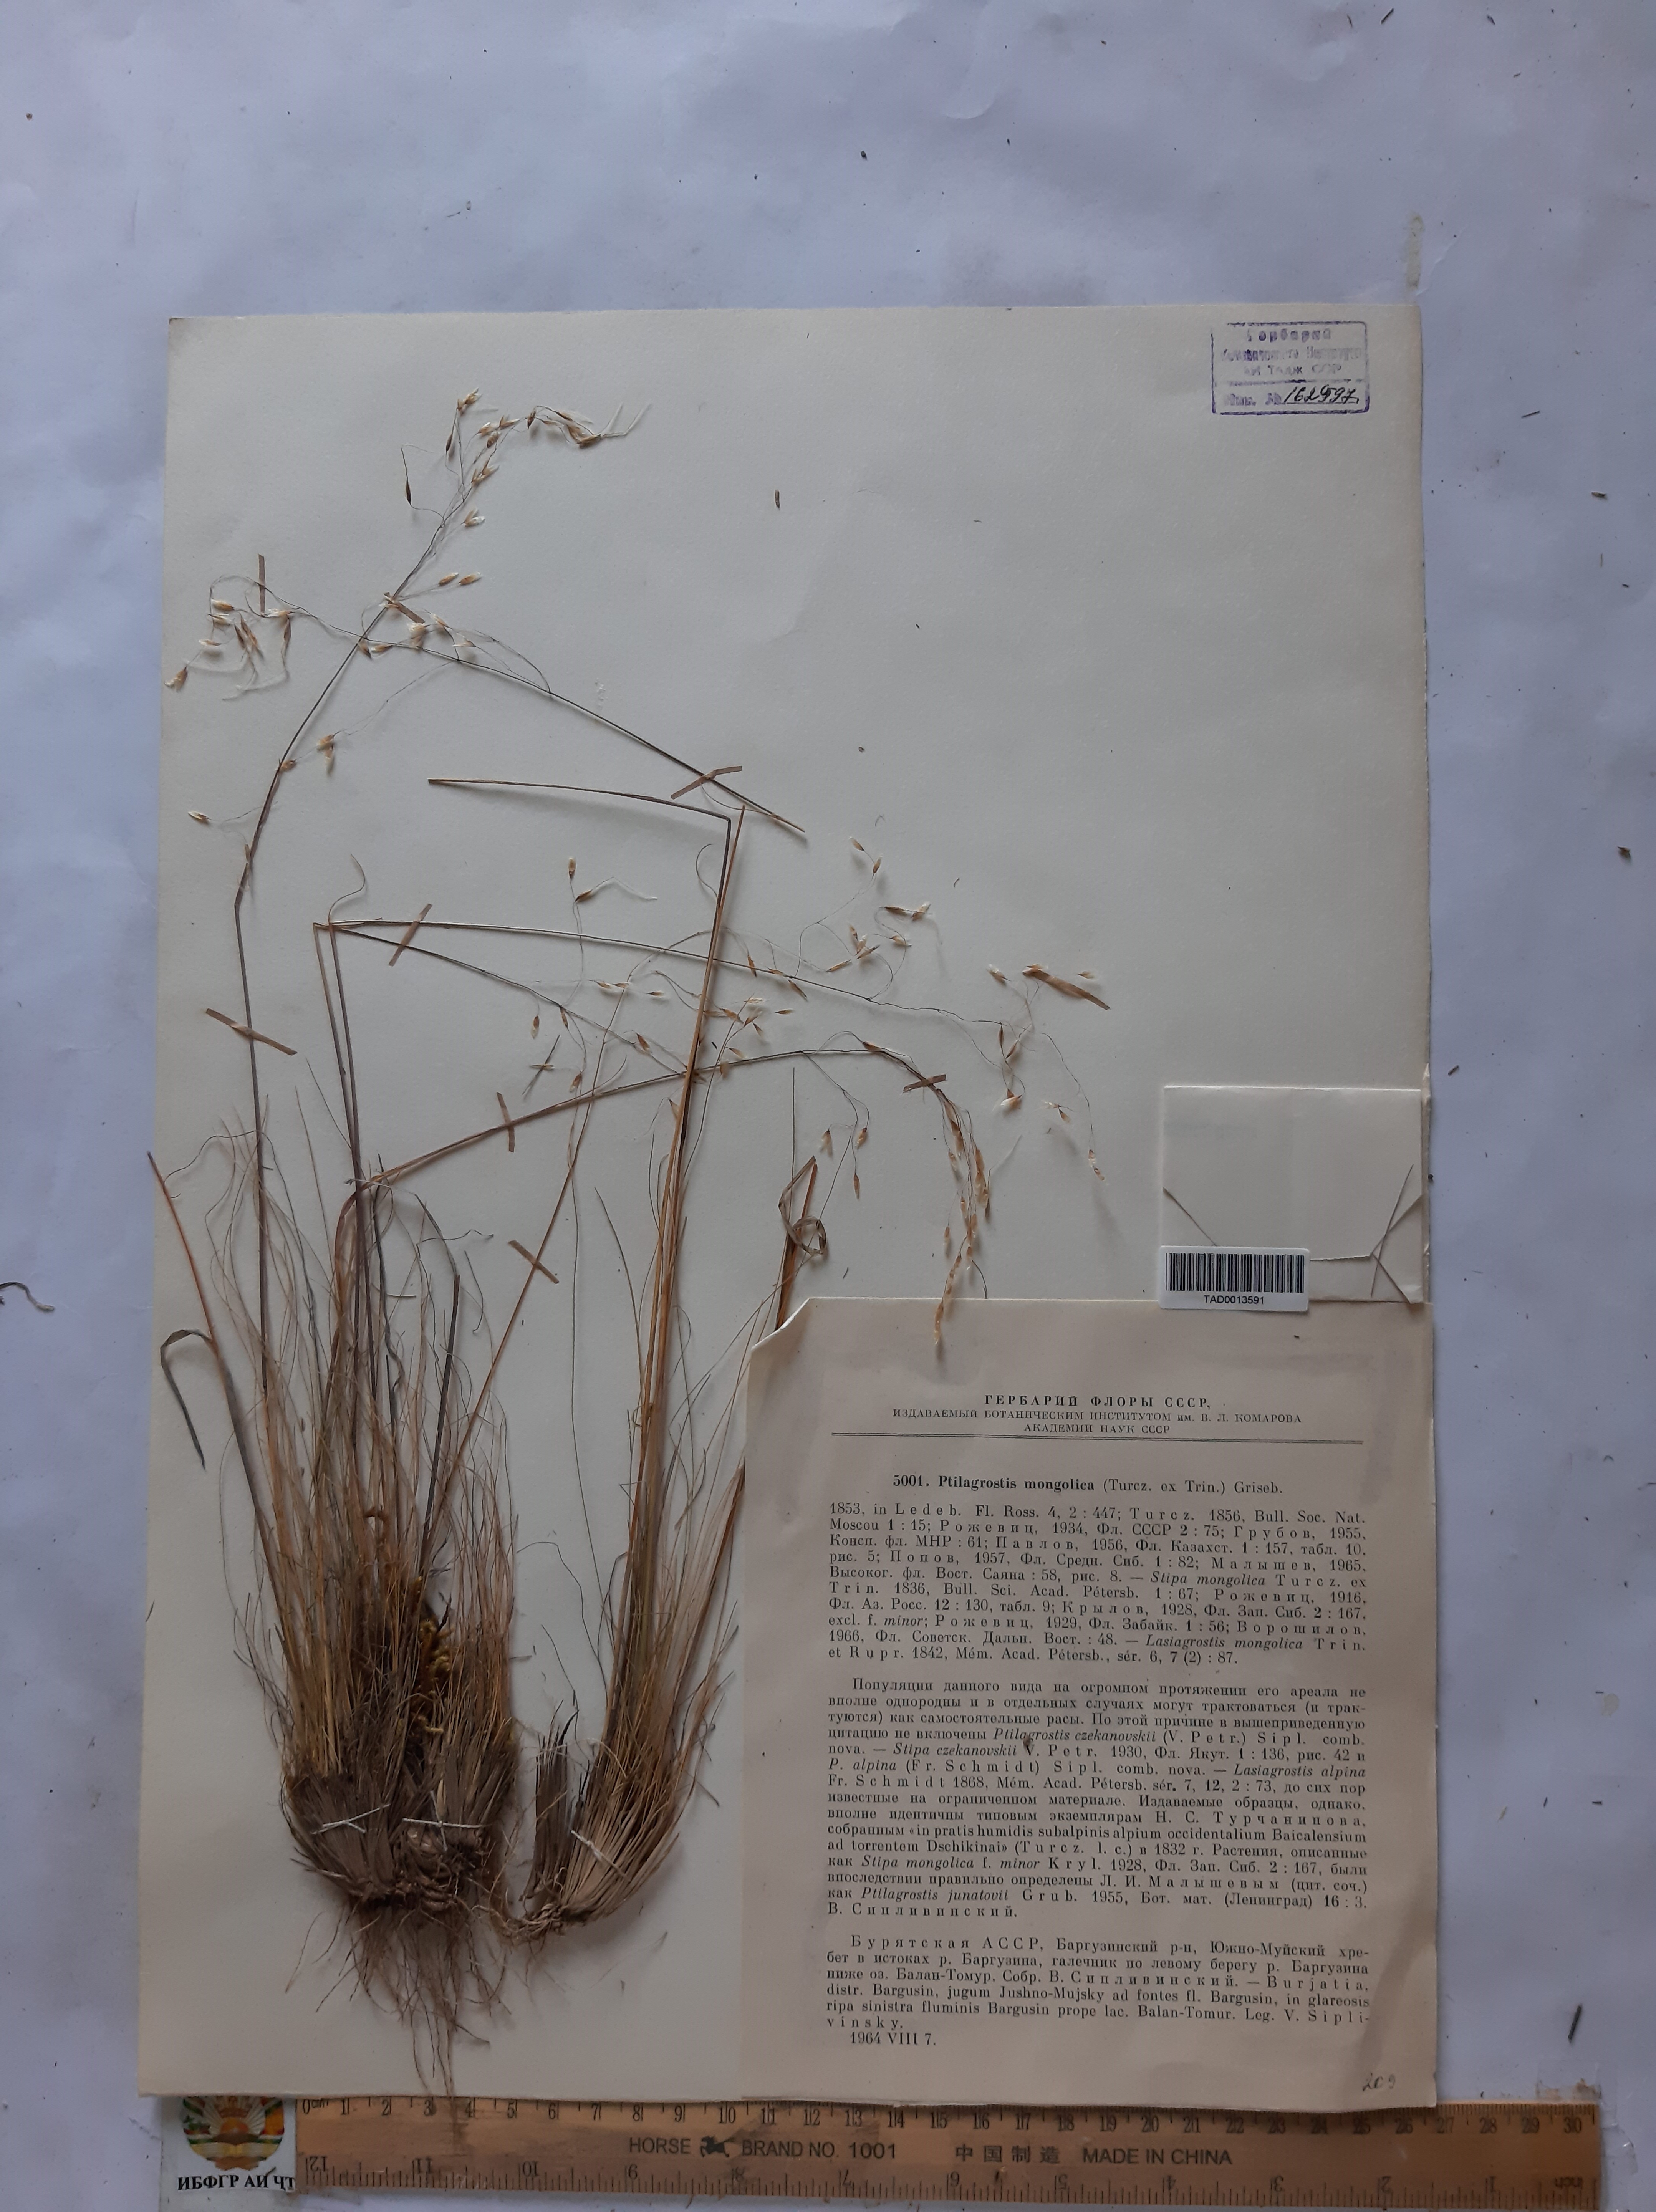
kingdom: Plantae
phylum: Tracheophyta
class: Liliopsida
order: Poales
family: Poaceae
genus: Ptilagrostis
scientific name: Ptilagrostis mongholica
